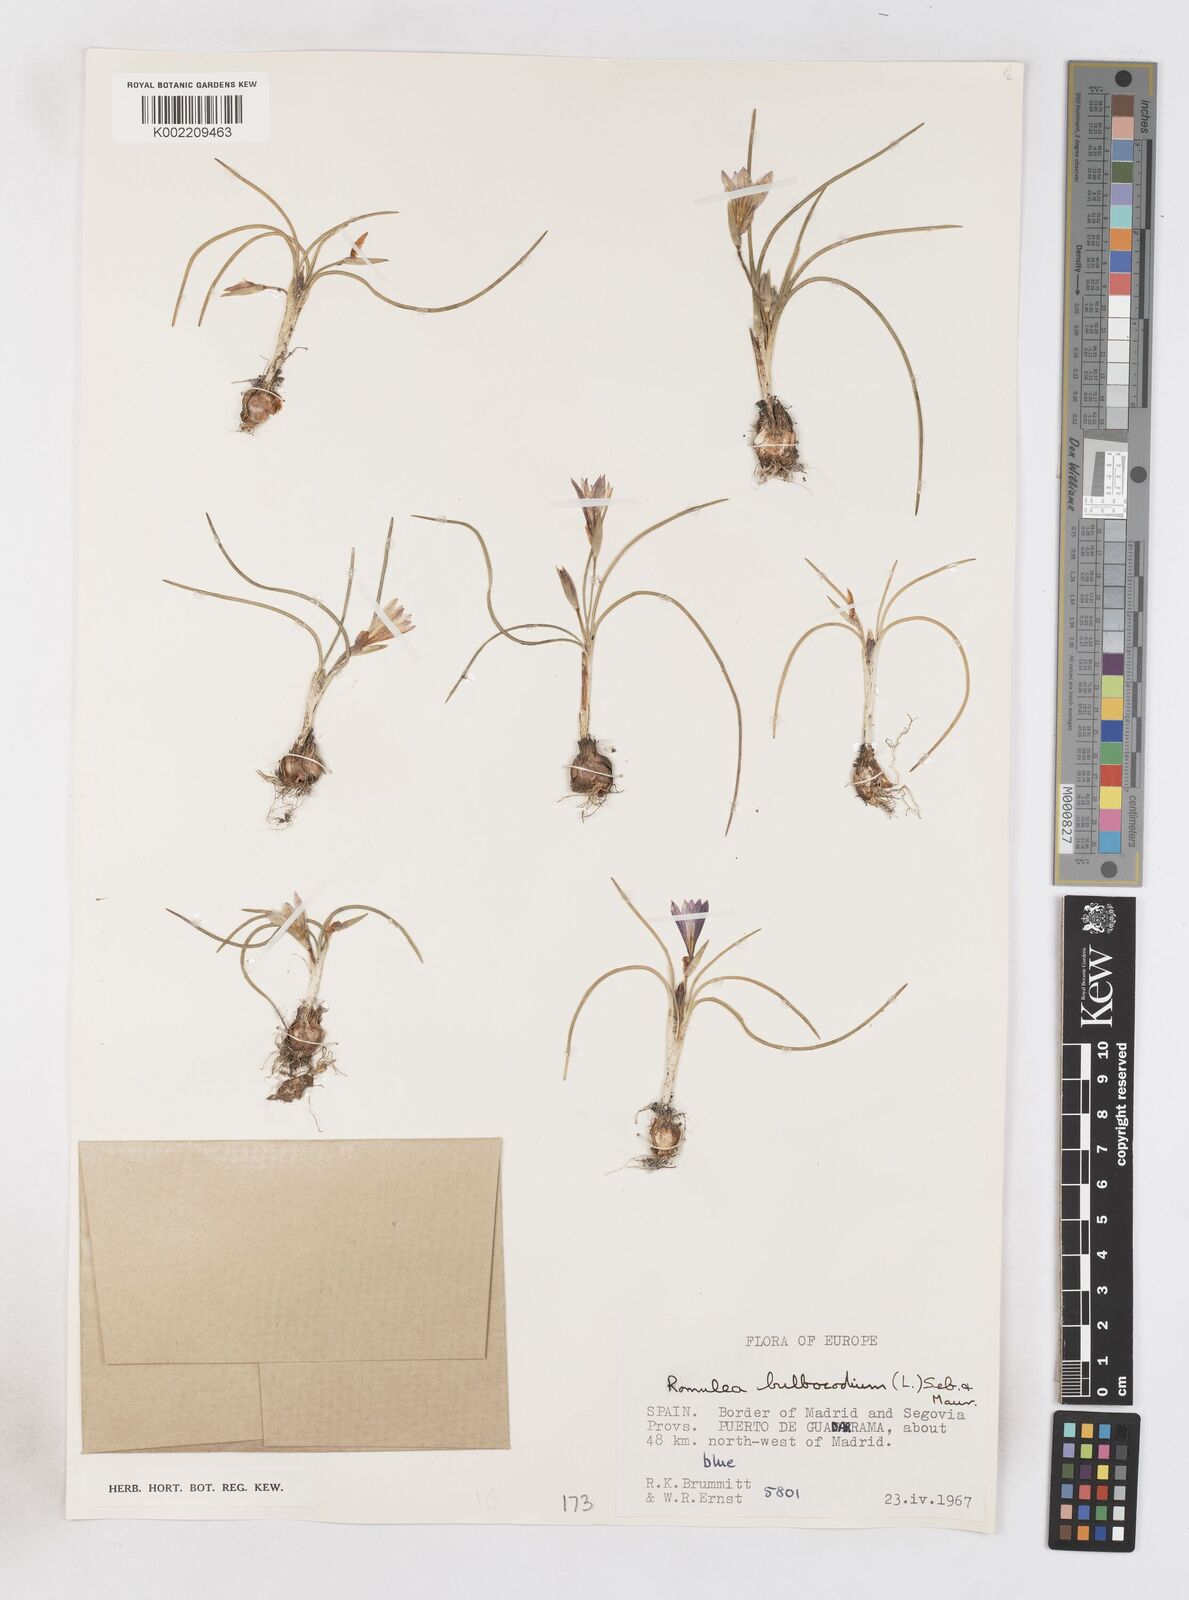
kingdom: Plantae
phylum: Tracheophyta
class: Liliopsida
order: Asparagales
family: Iridaceae
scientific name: Iridaceae
